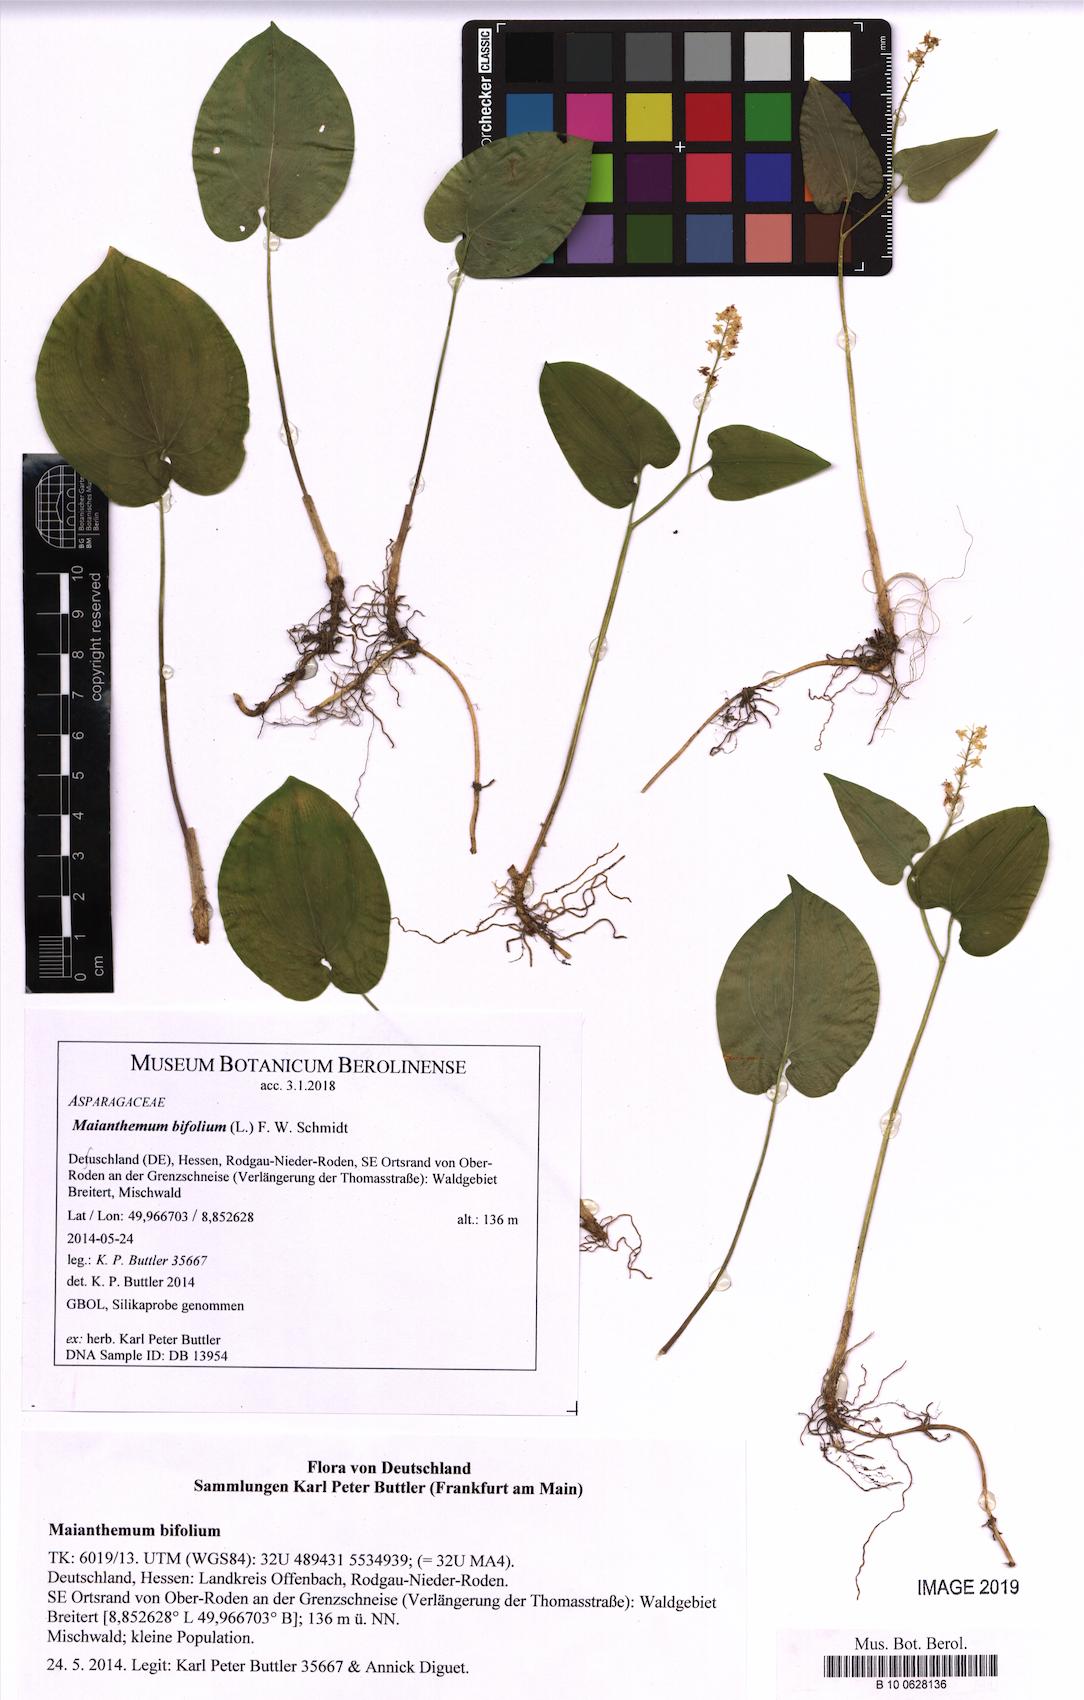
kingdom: Plantae
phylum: Tracheophyta
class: Liliopsida
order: Asparagales
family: Asparagaceae
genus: Maianthemum
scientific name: Maianthemum bifolium
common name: May lily
